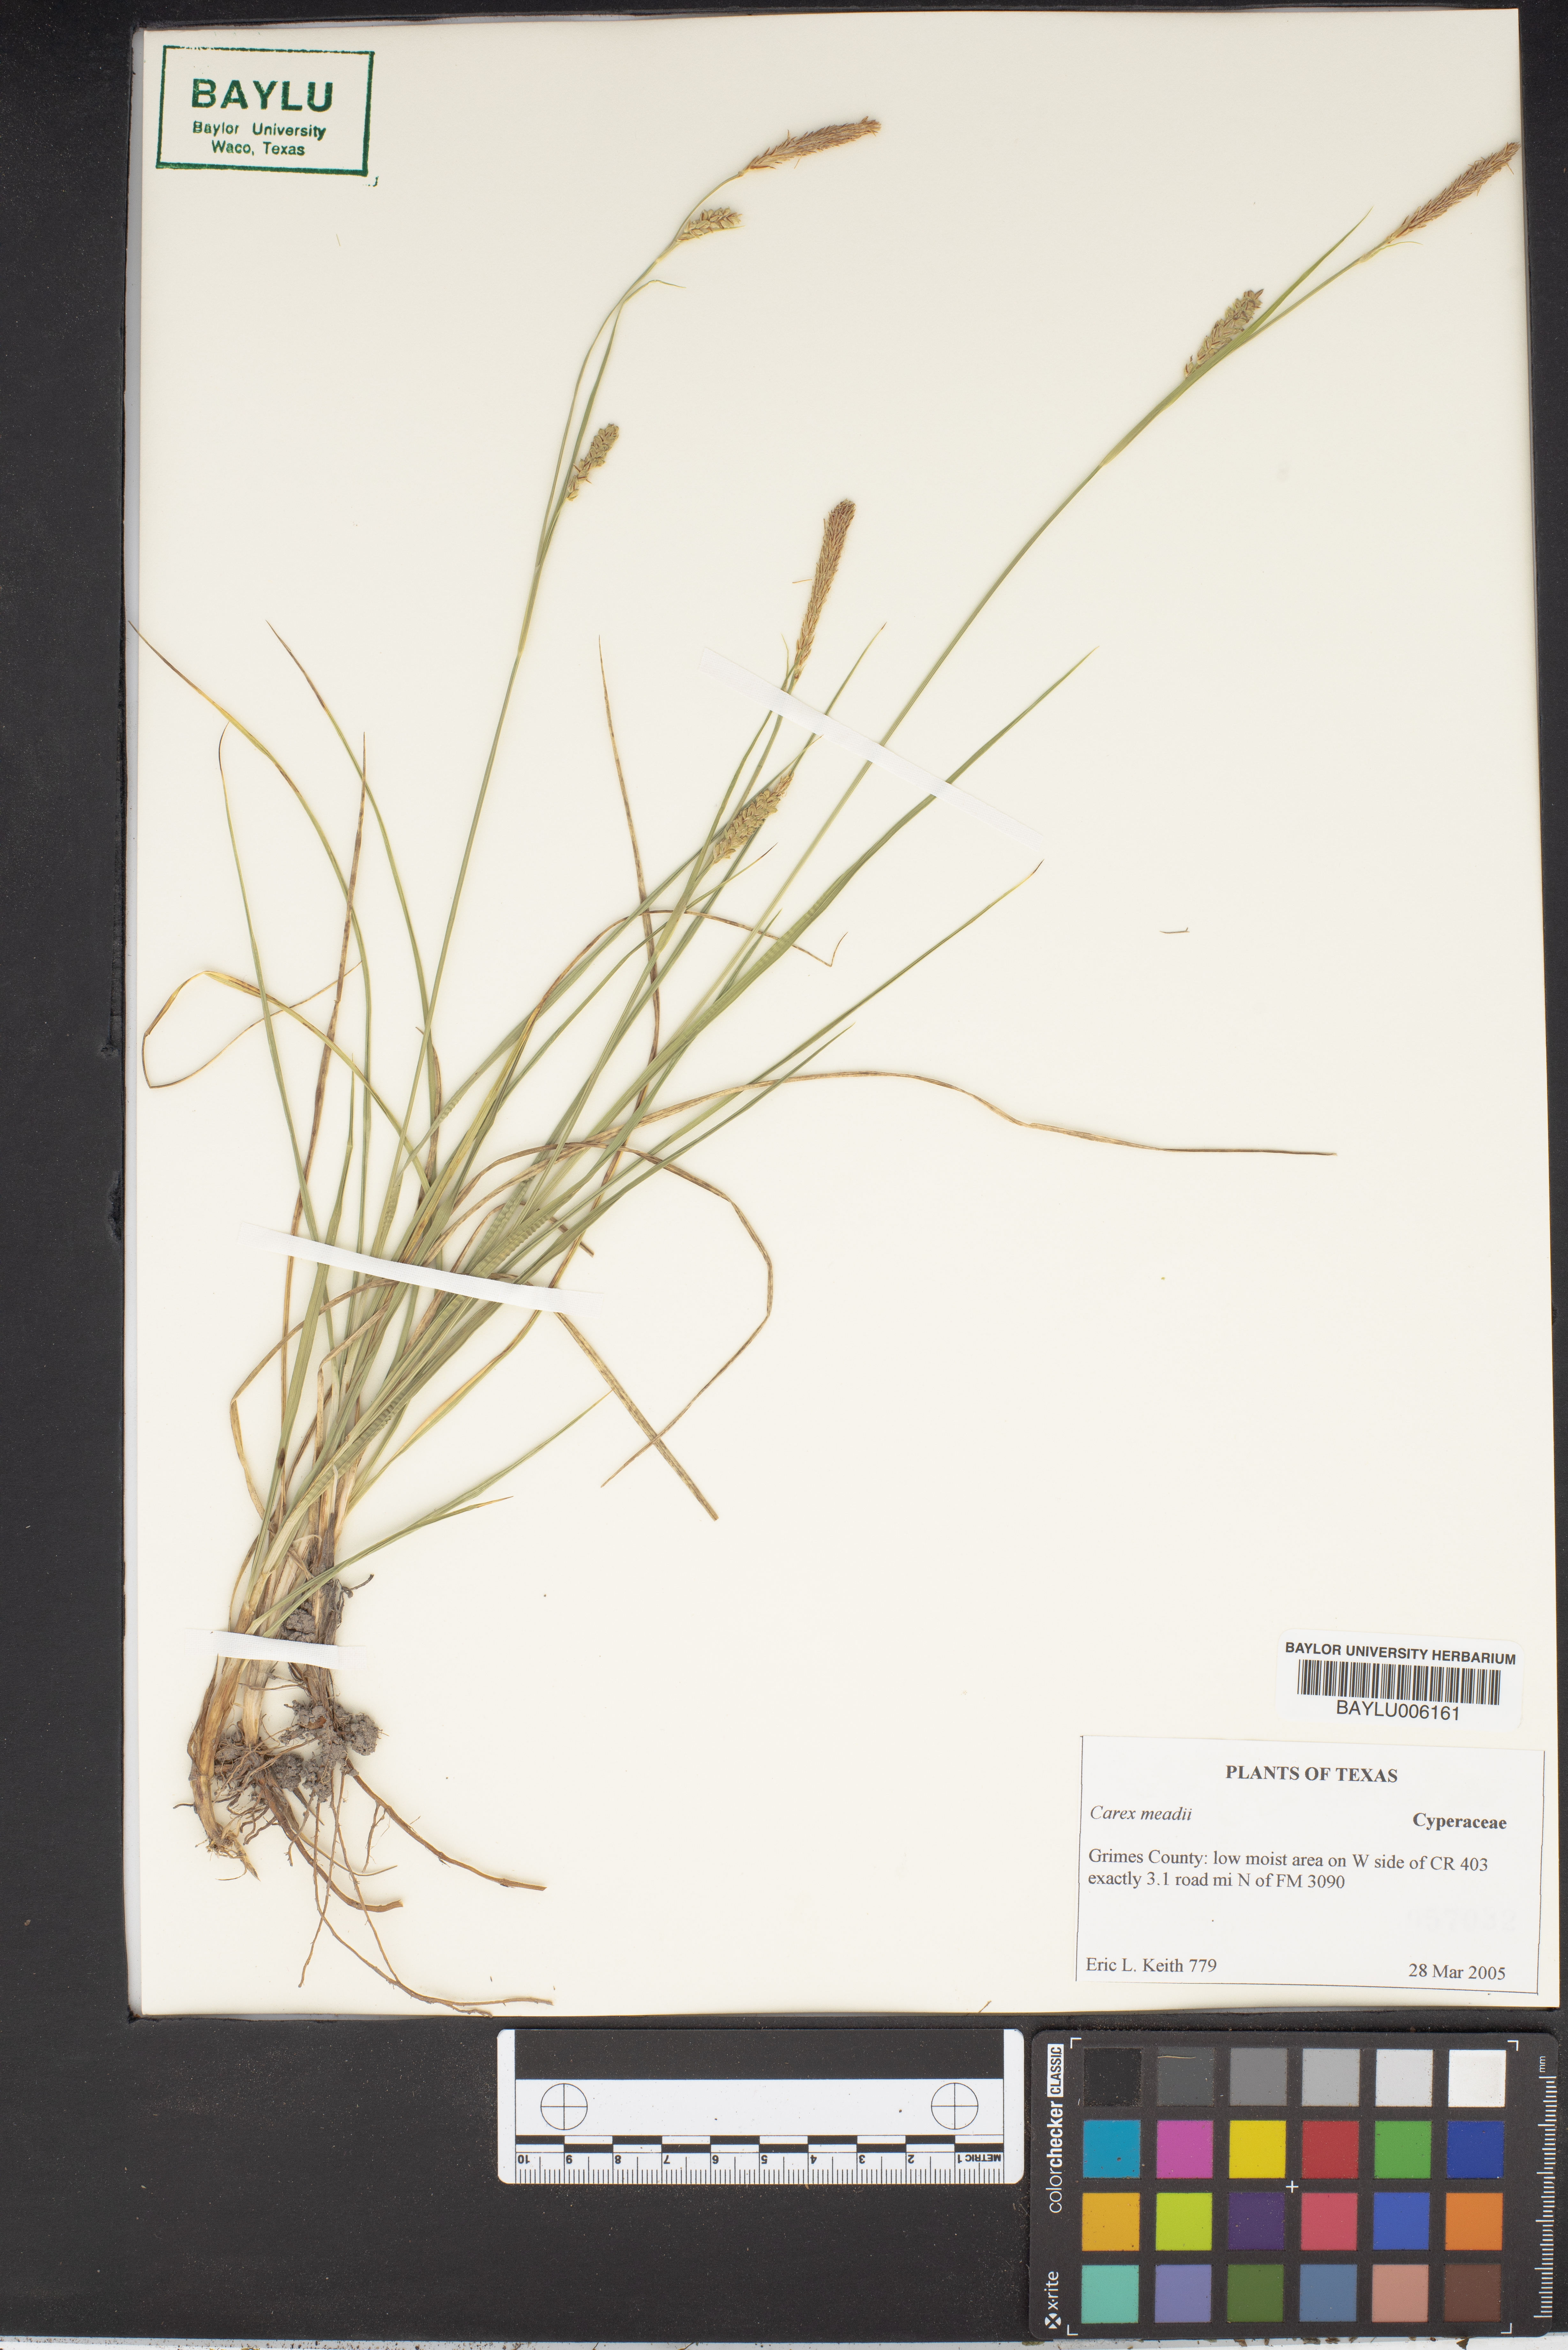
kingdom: Plantae
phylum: Tracheophyta
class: Liliopsida
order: Poales
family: Cyperaceae
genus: Carex
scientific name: Carex
